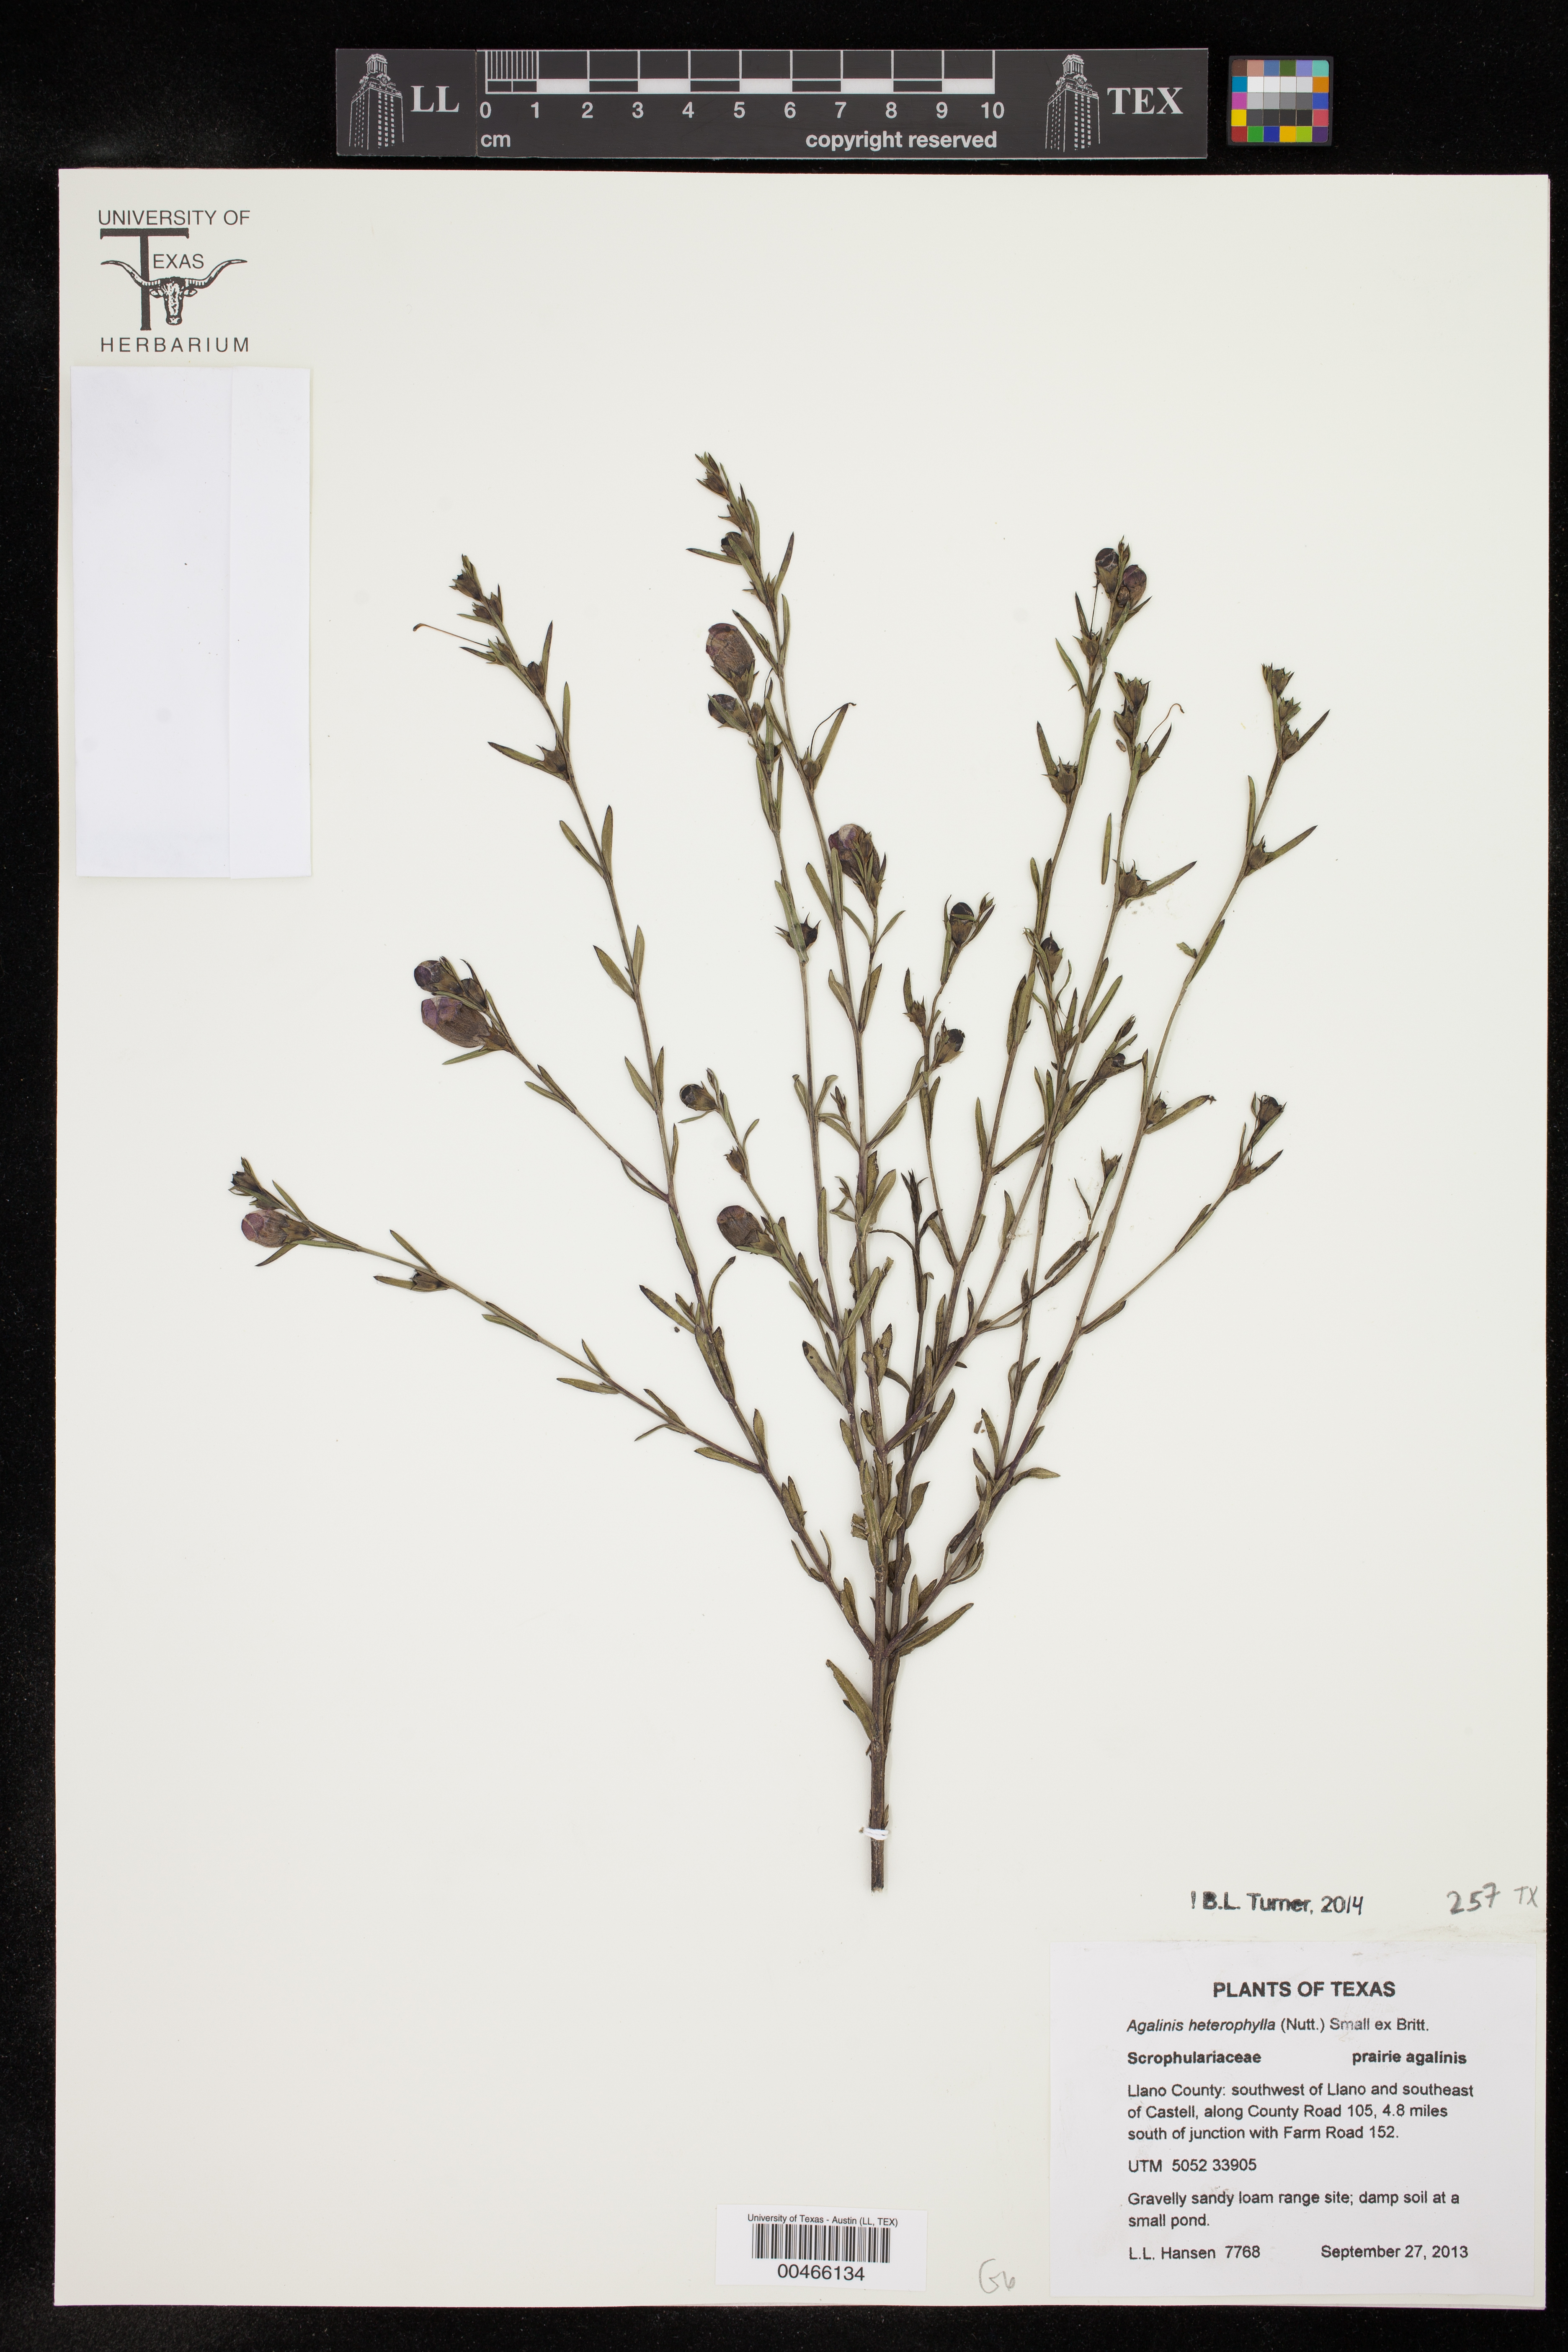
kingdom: Plantae
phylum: Tracheophyta
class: Magnoliopsida
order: Lamiales
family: Orobanchaceae
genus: Agalinis
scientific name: Agalinis heterophylla
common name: Prairie agalinis
